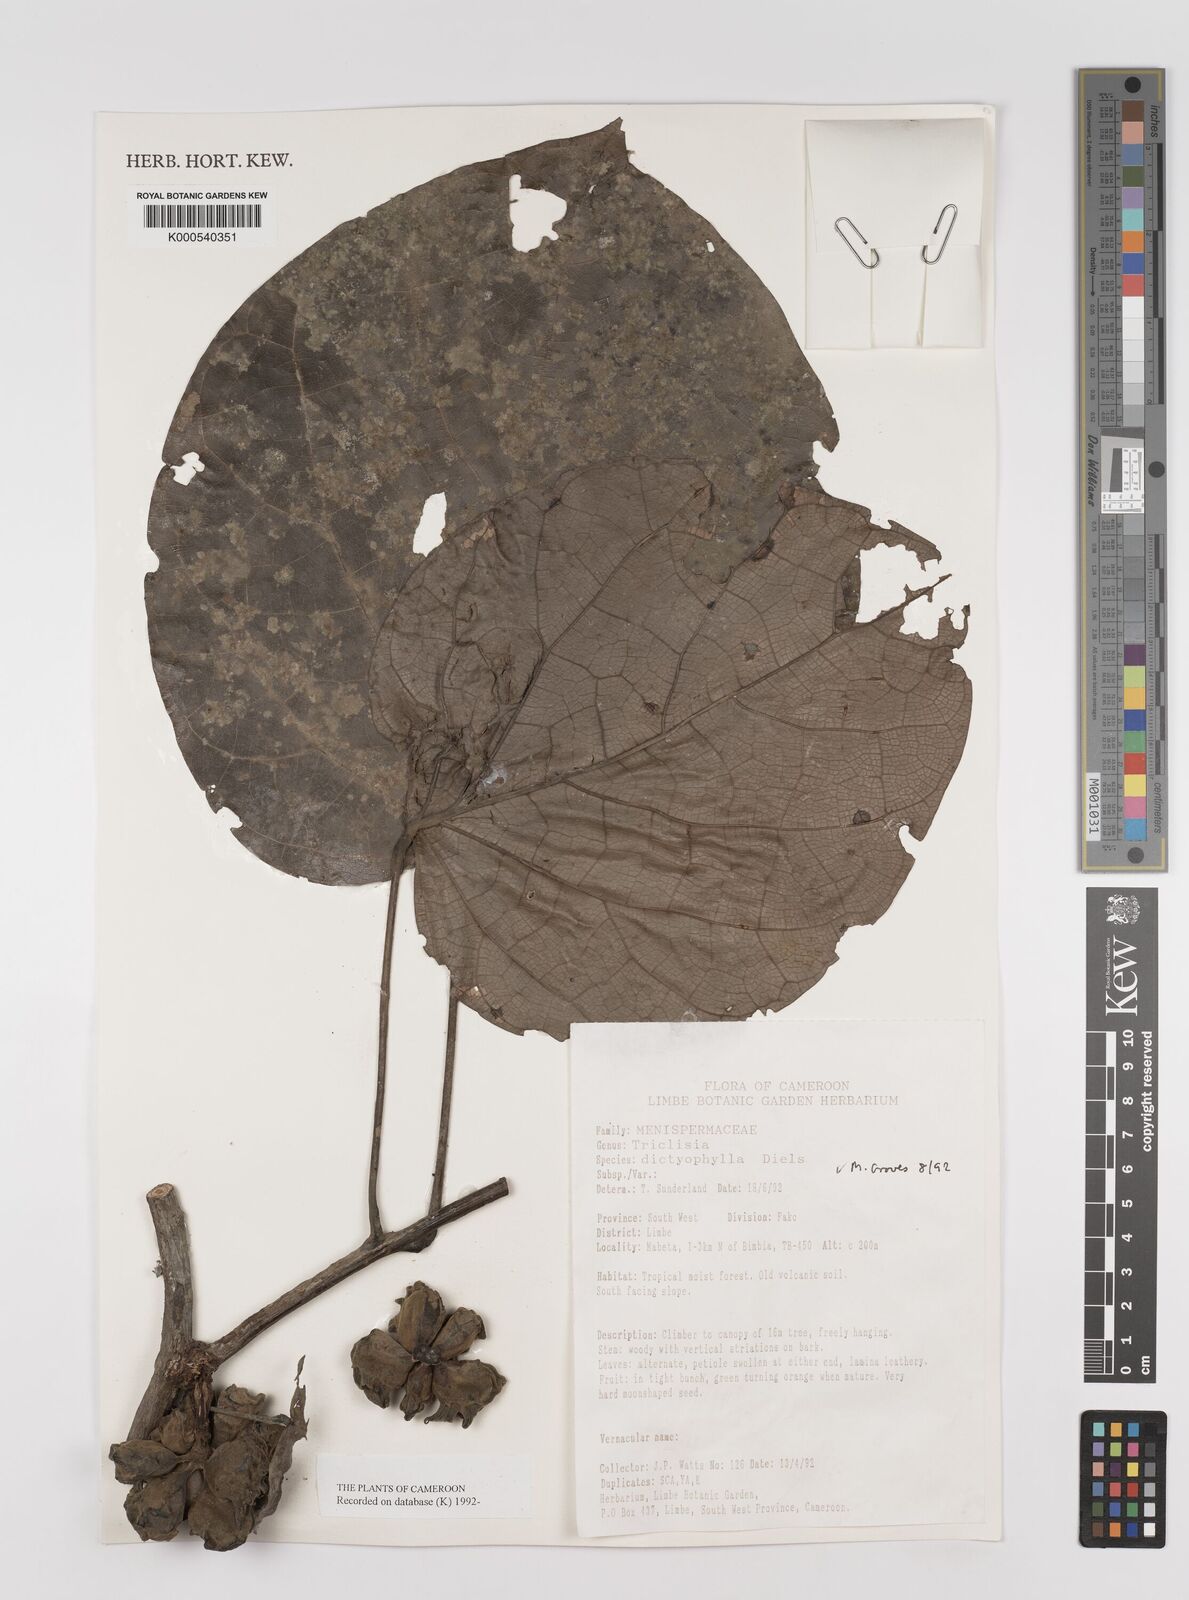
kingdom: Plantae
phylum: Tracheophyta
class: Magnoliopsida
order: Ranunculales
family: Menispermaceae
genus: Triclisia
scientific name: Triclisia dictyophylla
